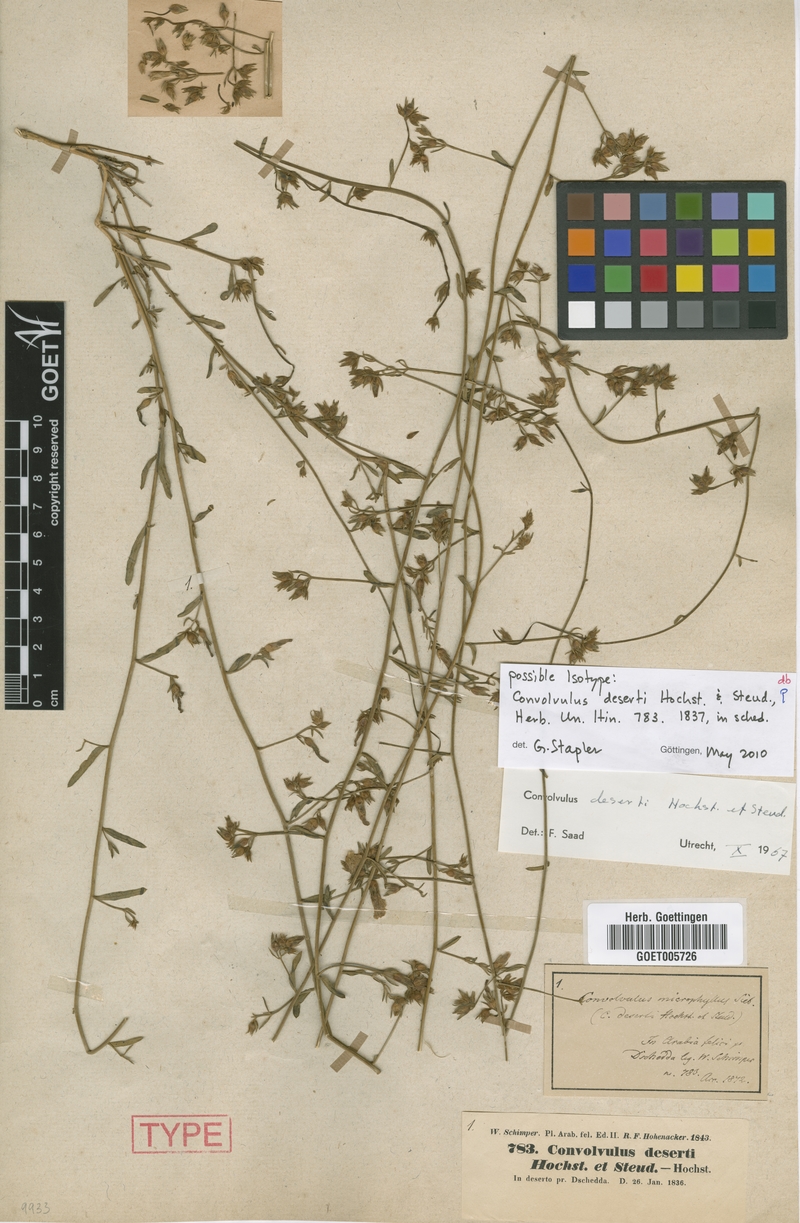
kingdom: Plantae
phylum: Tracheophyta
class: Magnoliopsida
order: Solanales
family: Convolvulaceae
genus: Convolvulus
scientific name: Convolvulus prostratus
